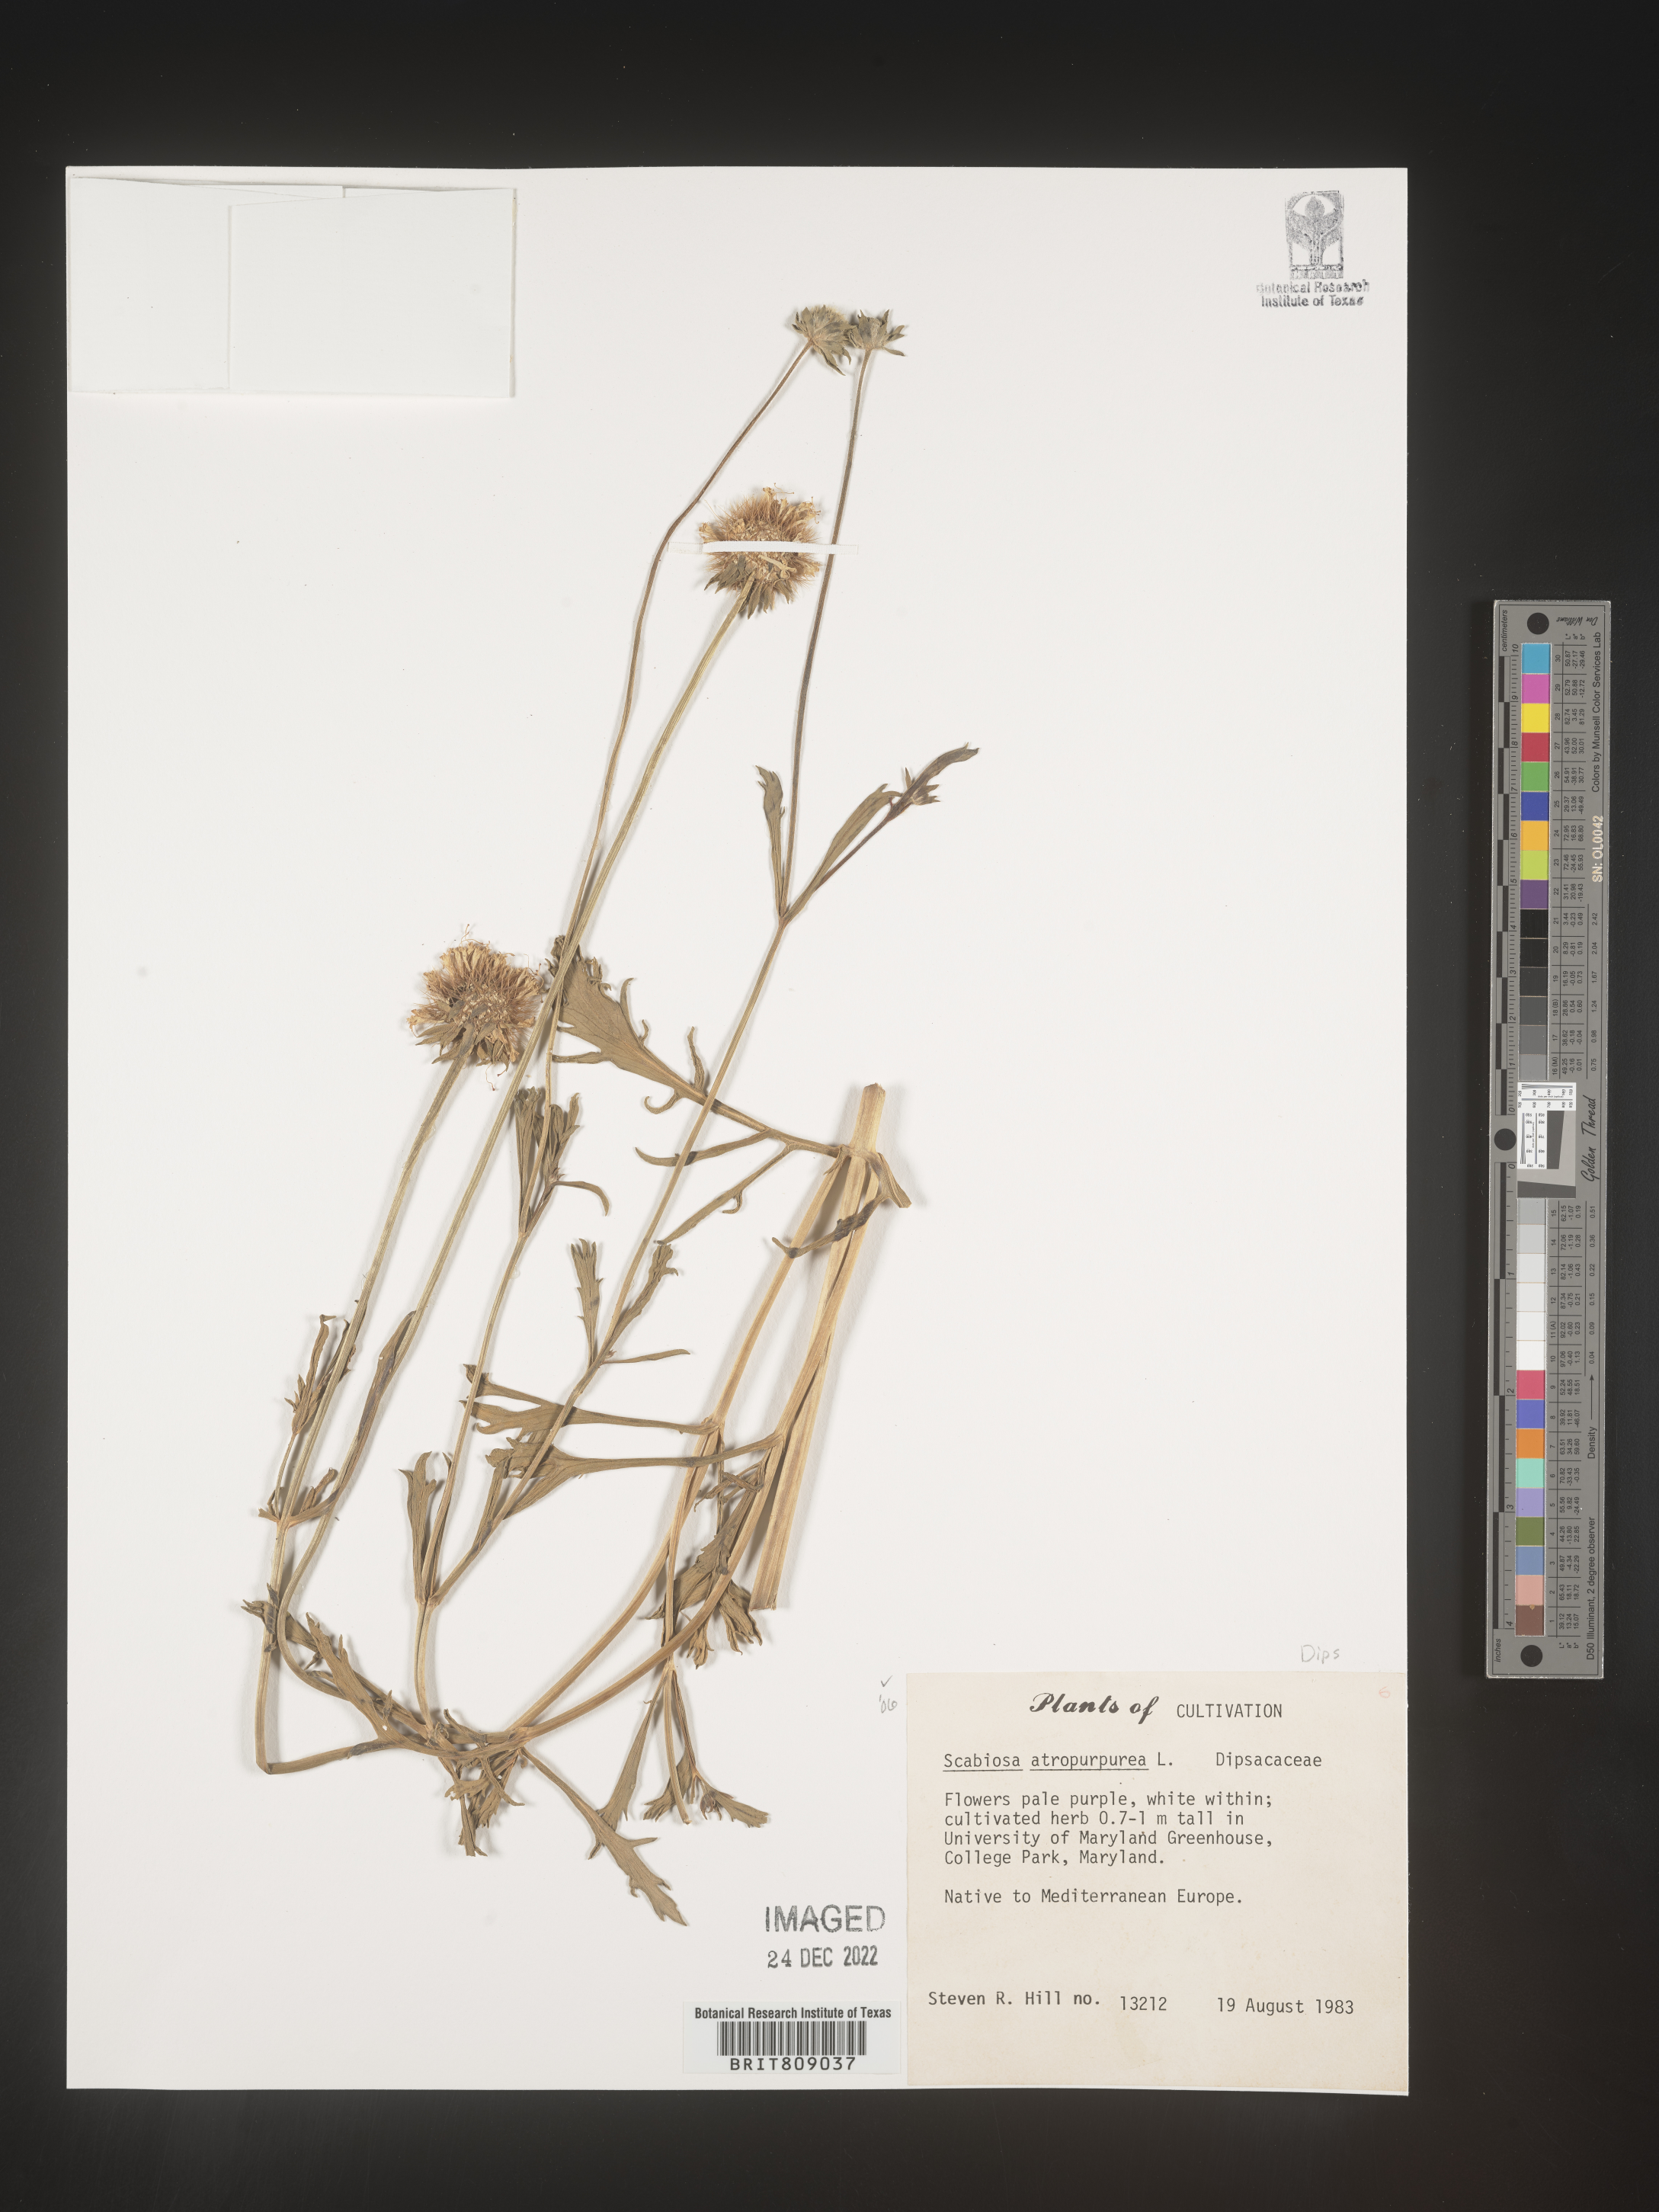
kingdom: Plantae
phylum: Tracheophyta
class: Magnoliopsida
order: Dipsacales
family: Caprifoliaceae
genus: Scabiosa
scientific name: Scabiosa
